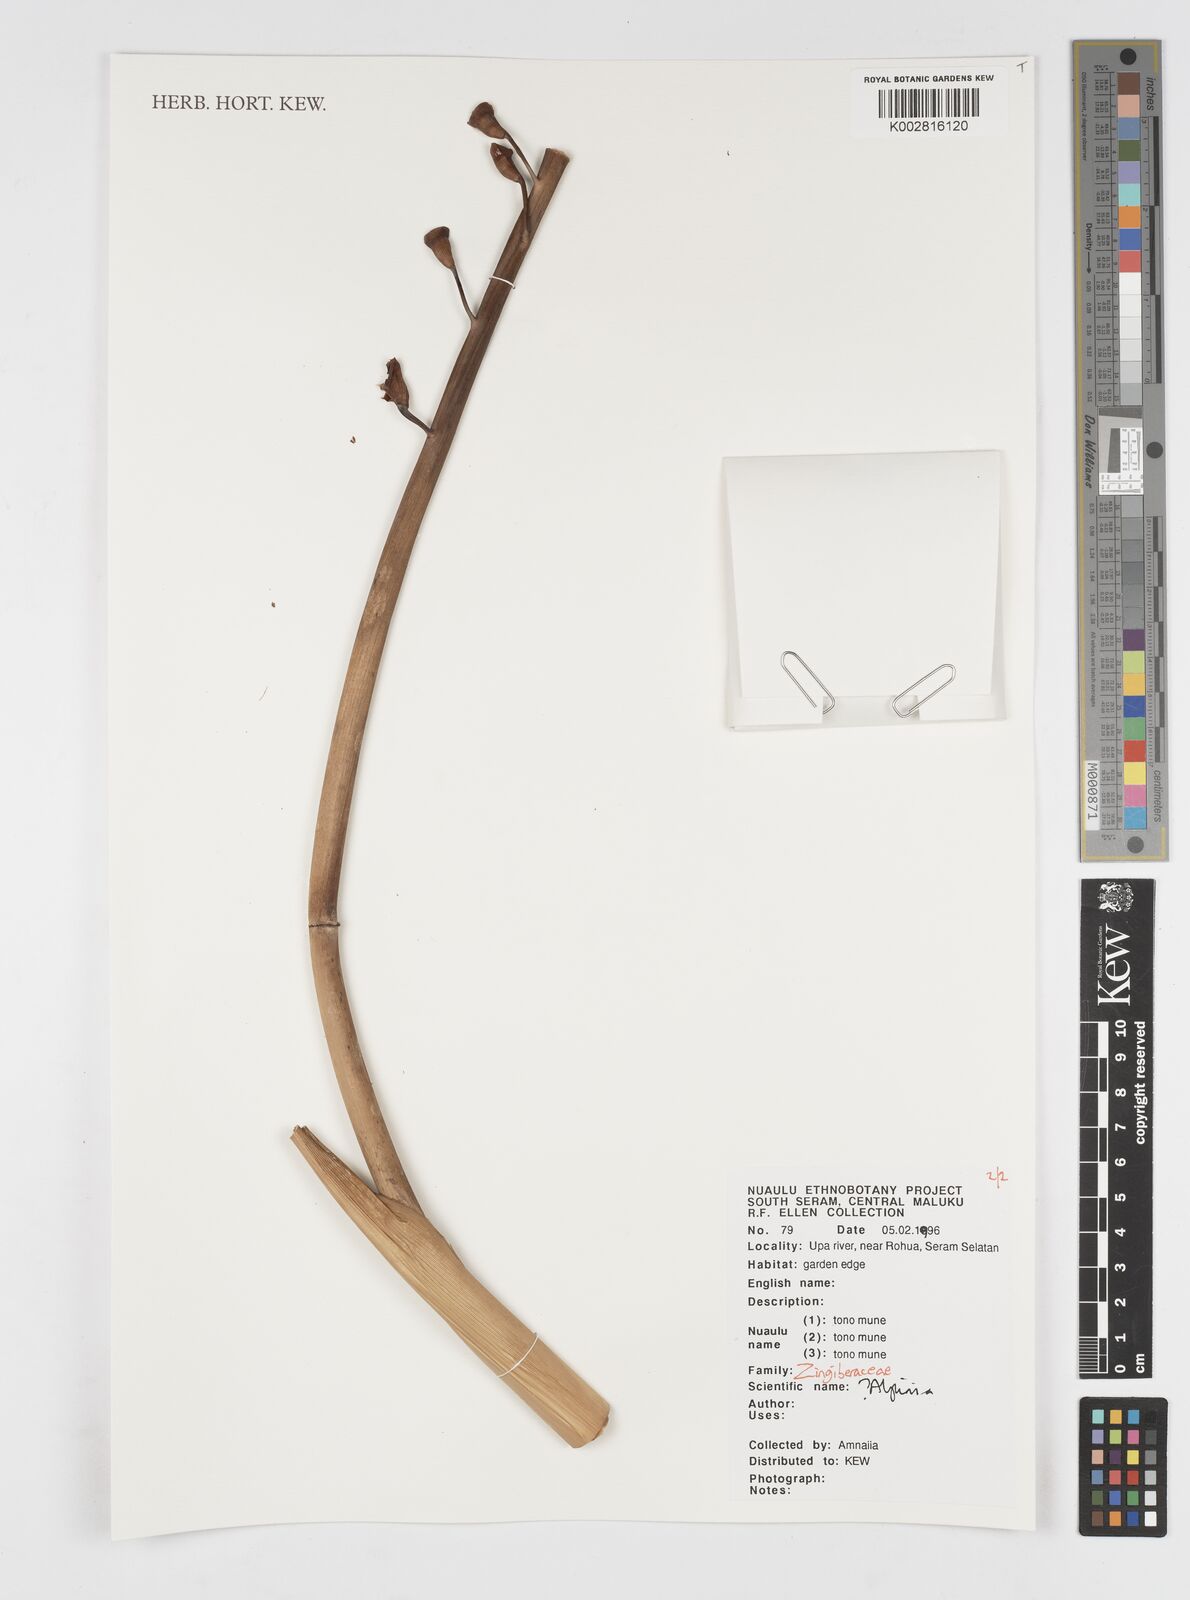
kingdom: Plantae
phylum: Tracheophyta
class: Liliopsida
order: Zingiberales
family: Zingiberaceae
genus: Alpinia
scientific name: Alpinia
